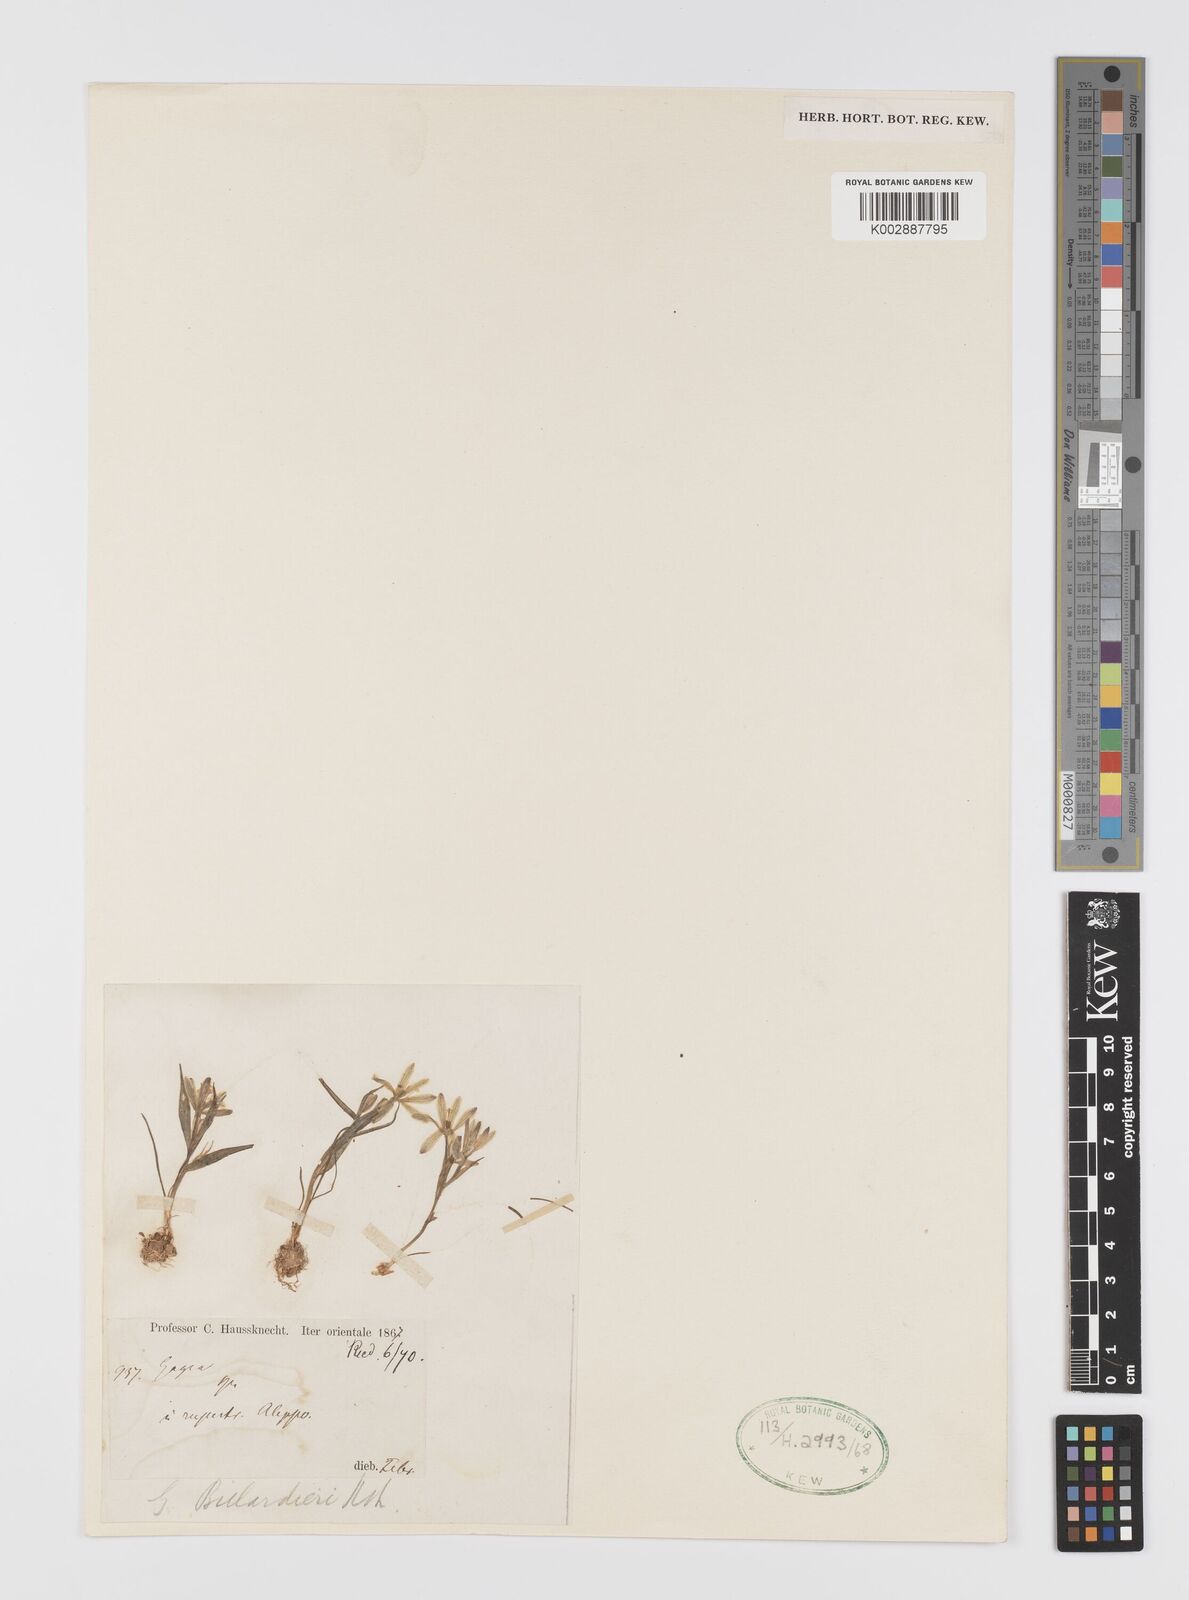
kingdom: Plantae
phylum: Tracheophyta
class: Liliopsida
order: Liliales
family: Liliaceae
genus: Gagea
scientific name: Gagea bohemica
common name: Early star-of-bethlehem
